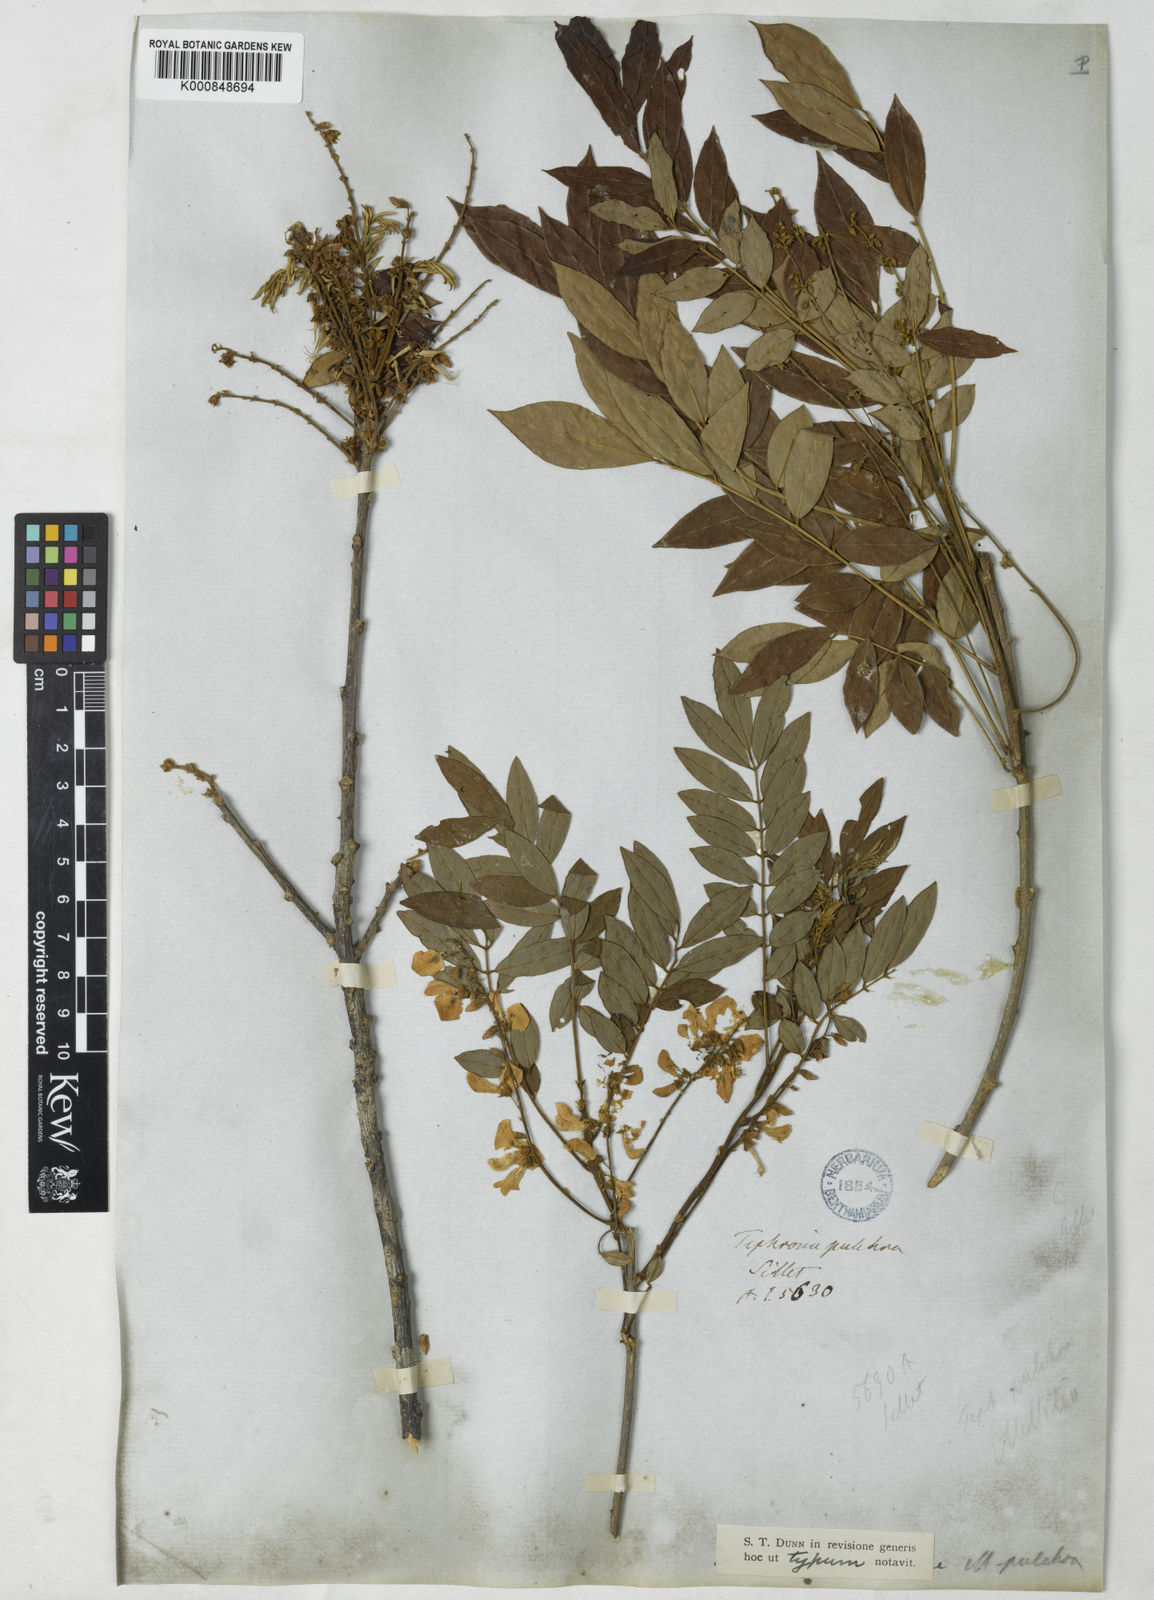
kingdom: Plantae
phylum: Tracheophyta
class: Magnoliopsida
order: Fabales
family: Fabaceae
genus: Millettia
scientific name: Millettia pulchra
